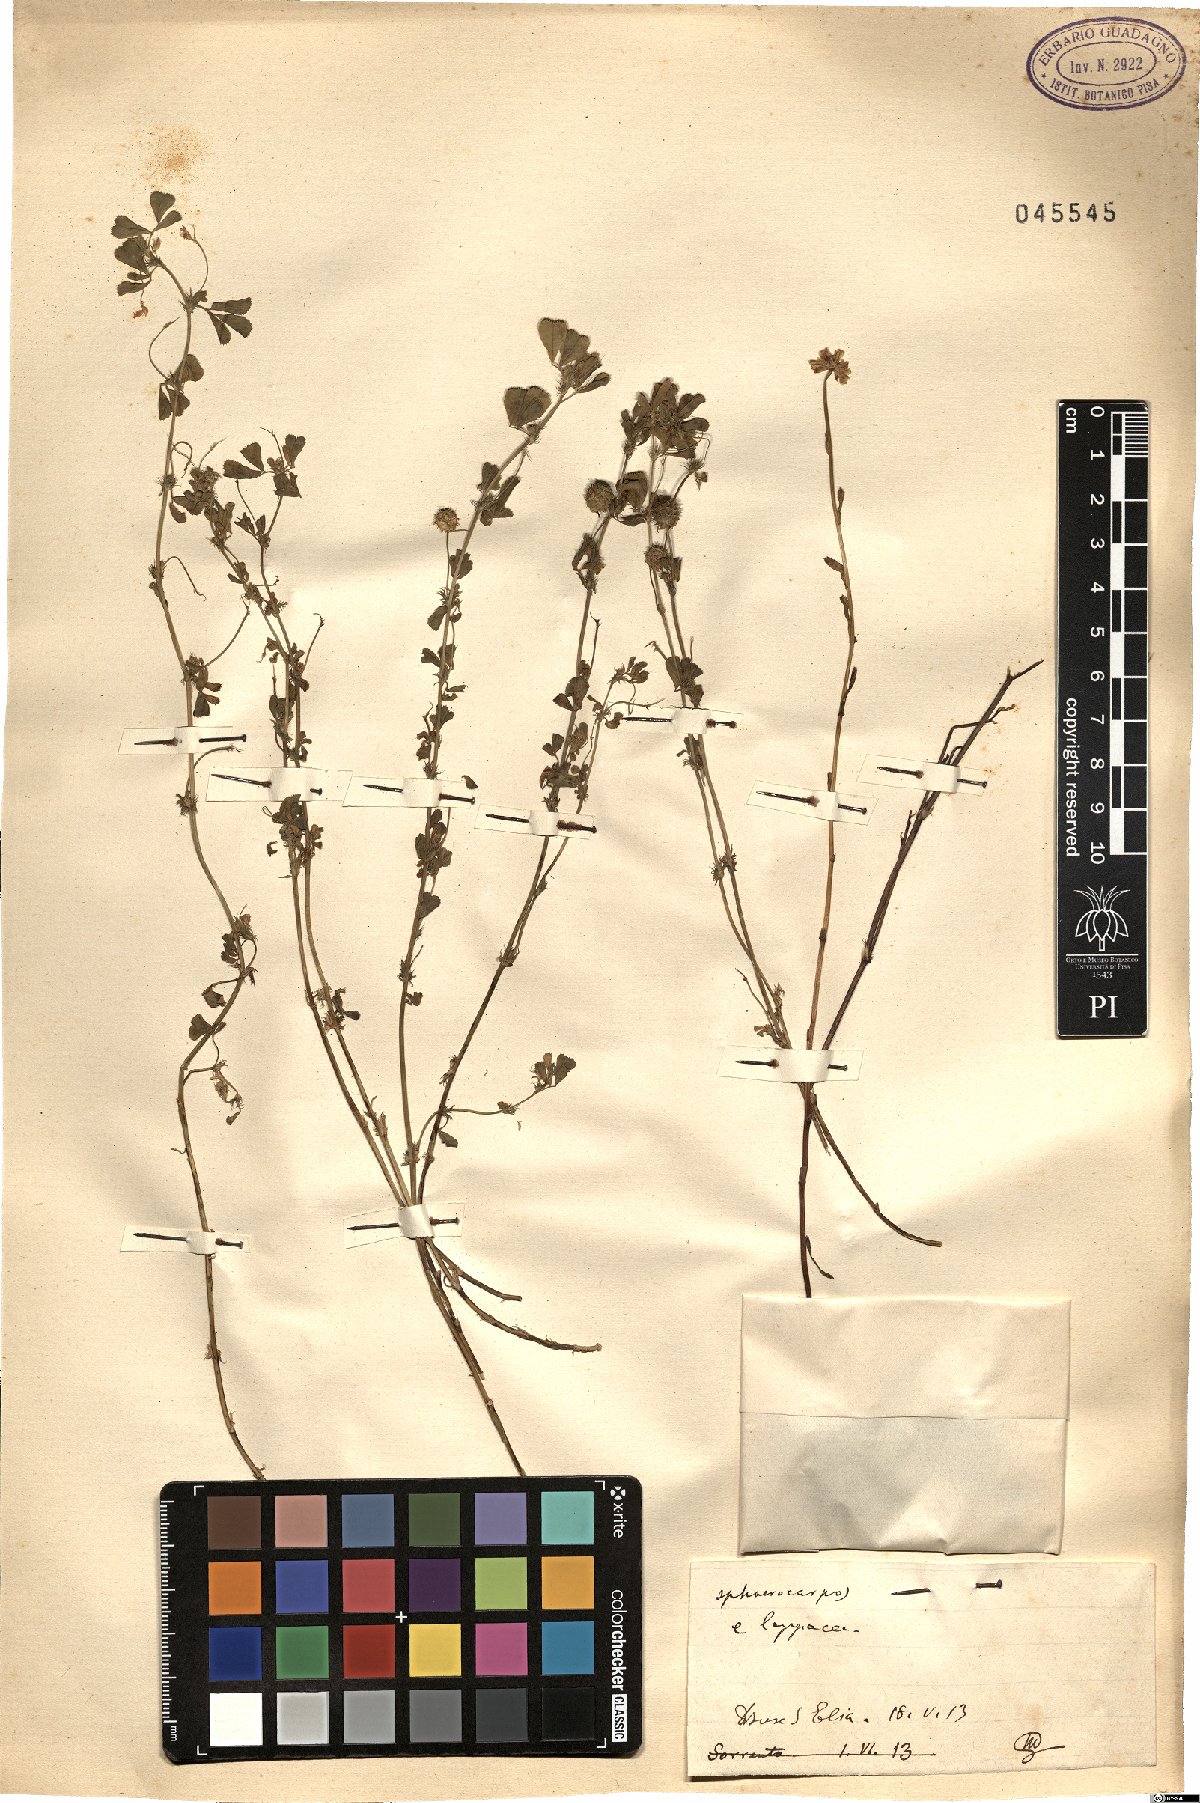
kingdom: Plantae
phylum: Tracheophyta
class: Magnoliopsida
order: Fabales
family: Fabaceae
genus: Medicago
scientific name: Medicago sphaerocarpos
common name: Sphere medic
